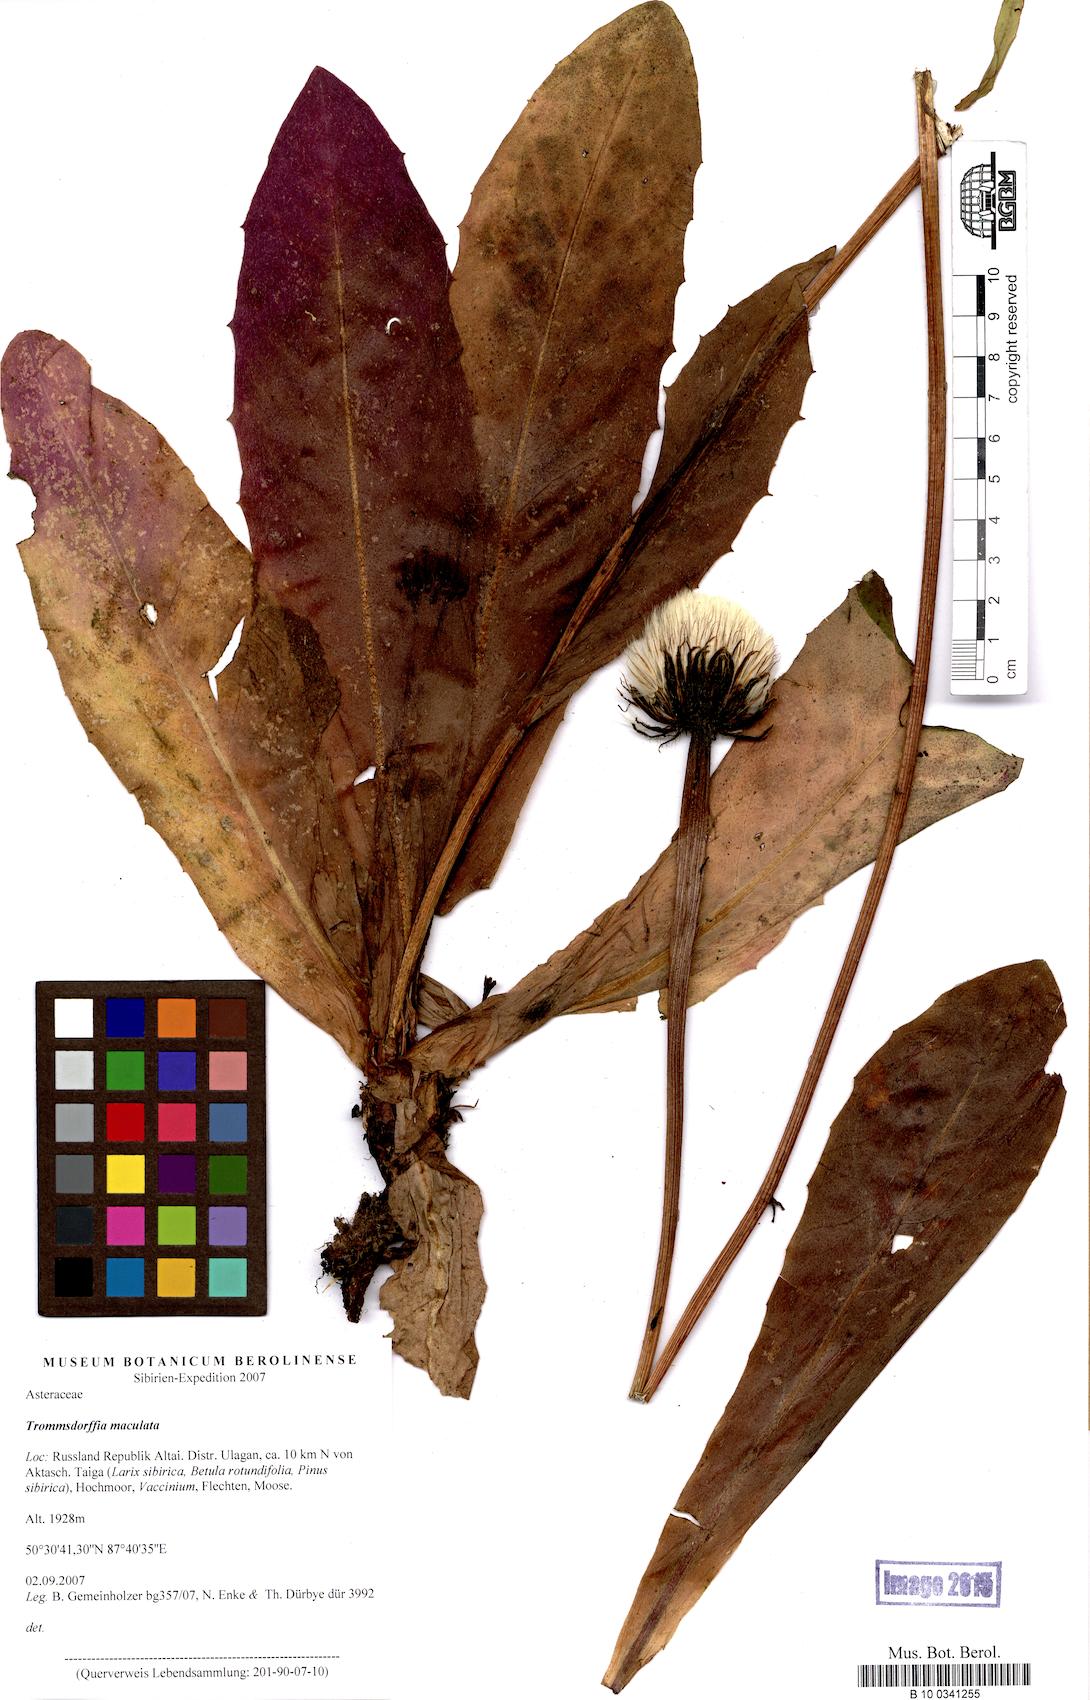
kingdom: Plantae
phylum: Tracheophyta
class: Magnoliopsida
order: Asterales
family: Asteraceae
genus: Trommsdorffia
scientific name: Trommsdorffia maculata
